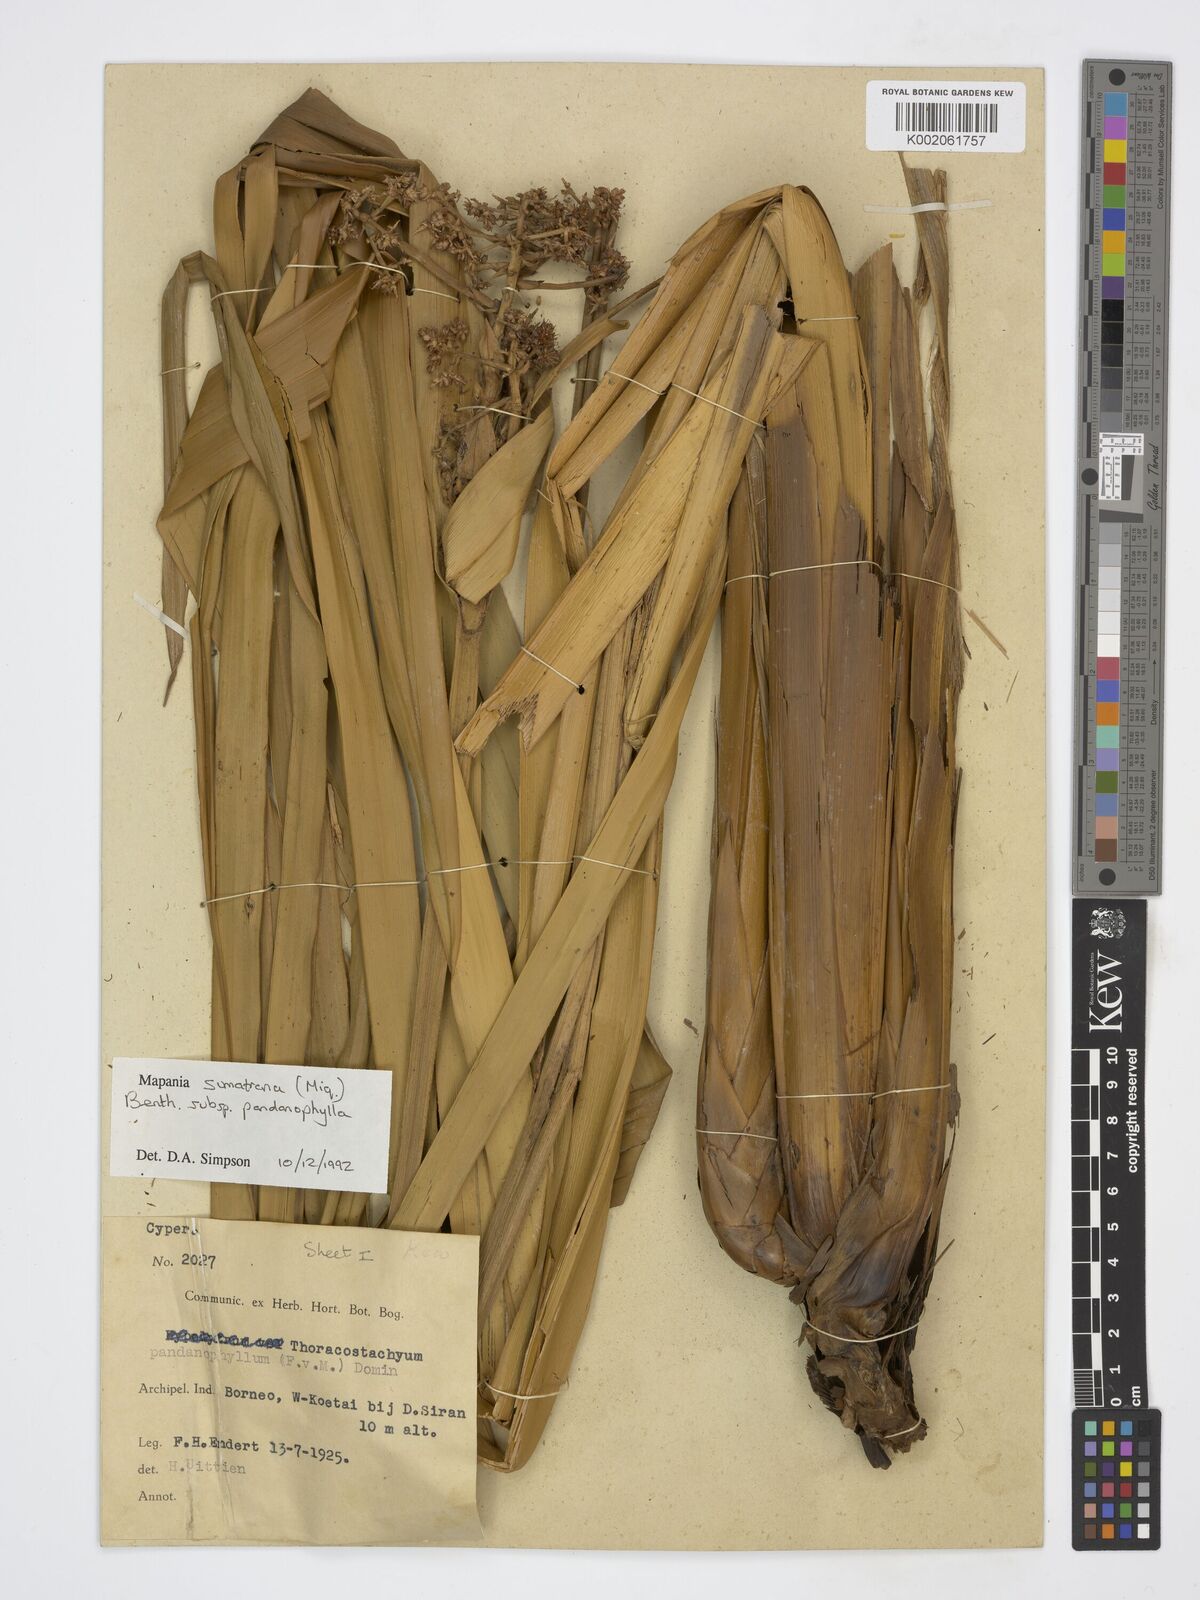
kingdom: Plantae
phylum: Tracheophyta
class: Liliopsida
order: Poales
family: Cyperaceae
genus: Mapania
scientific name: Mapania sumatrana
